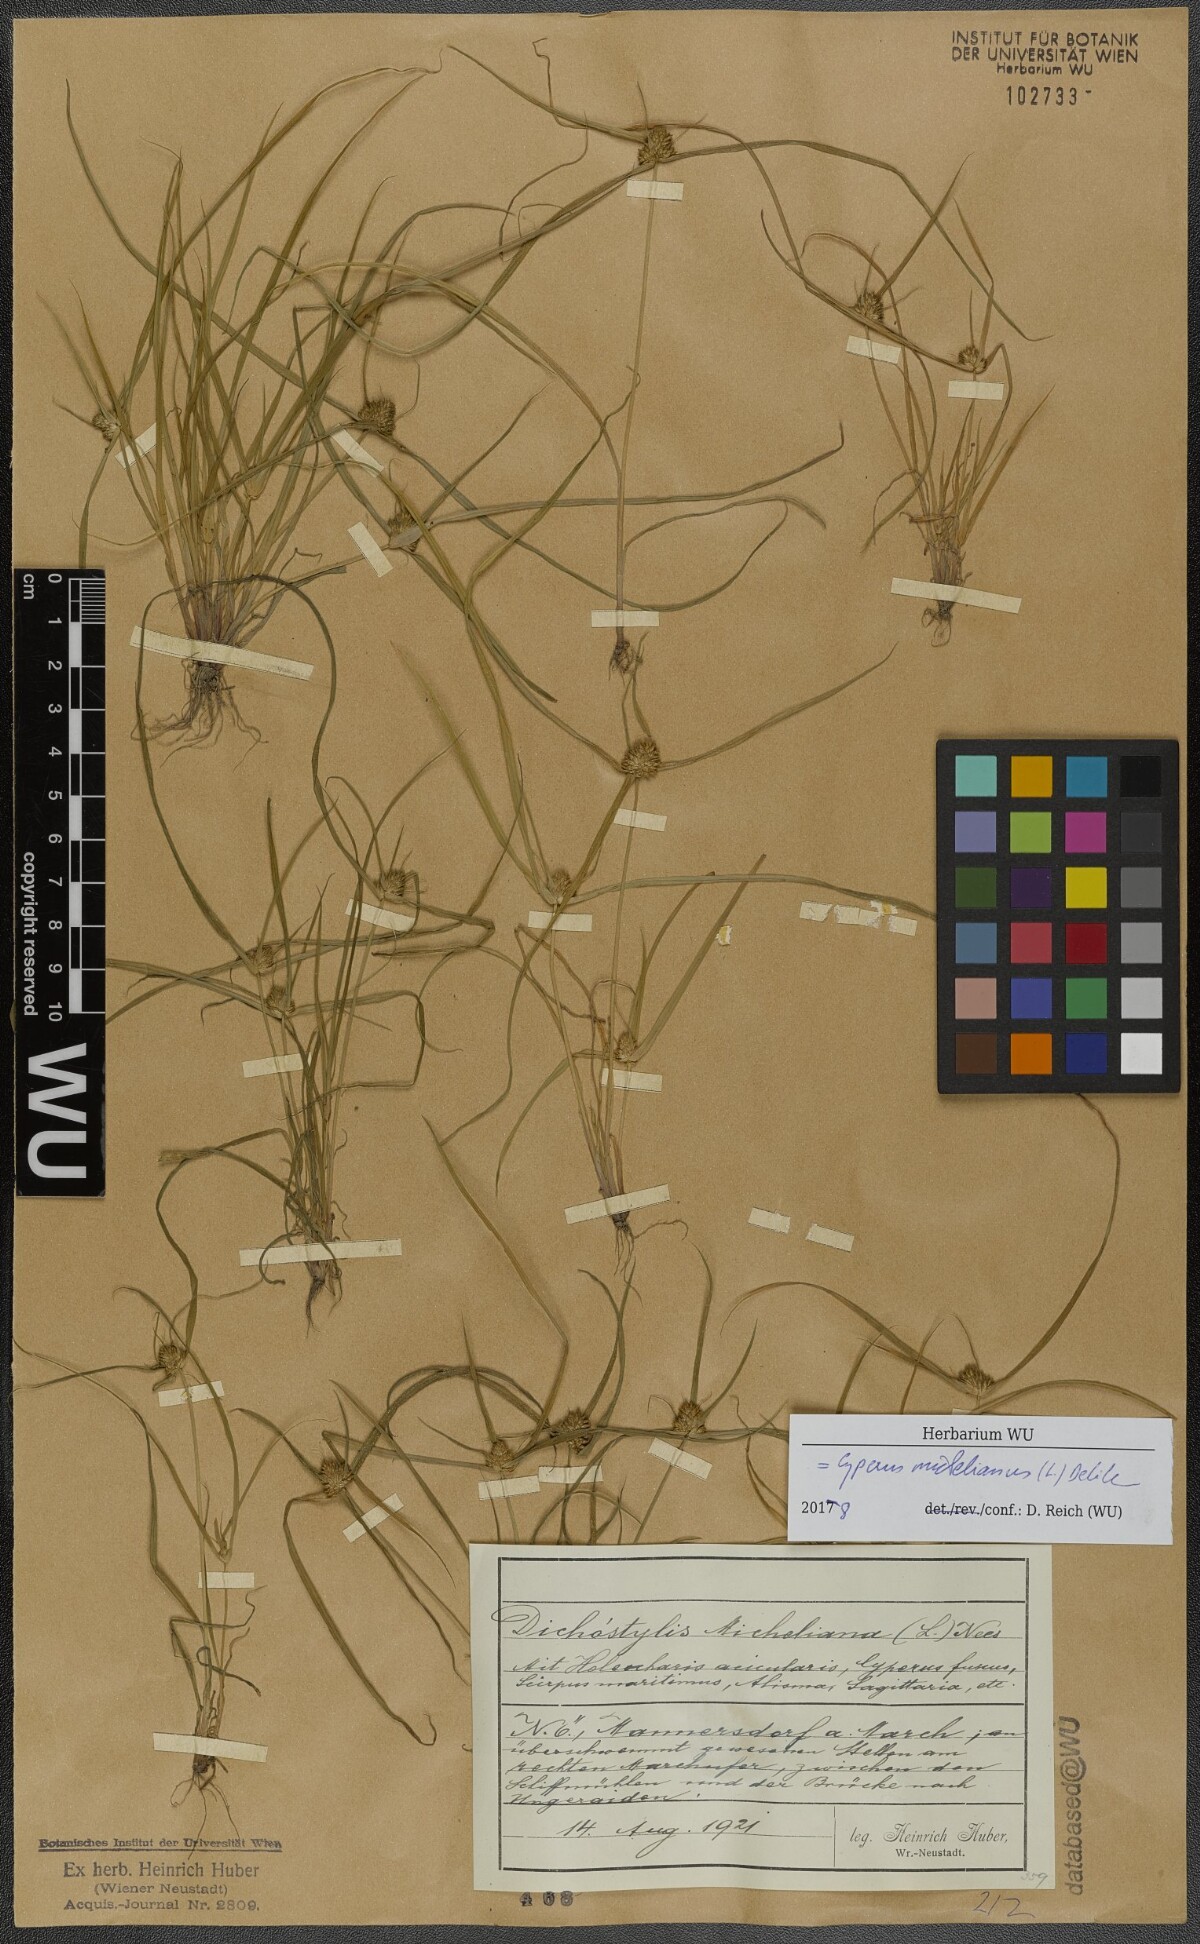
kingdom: Plantae
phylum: Tracheophyta
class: Liliopsida
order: Poales
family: Cyperaceae
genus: Cyperus
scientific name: Cyperus michelianus
